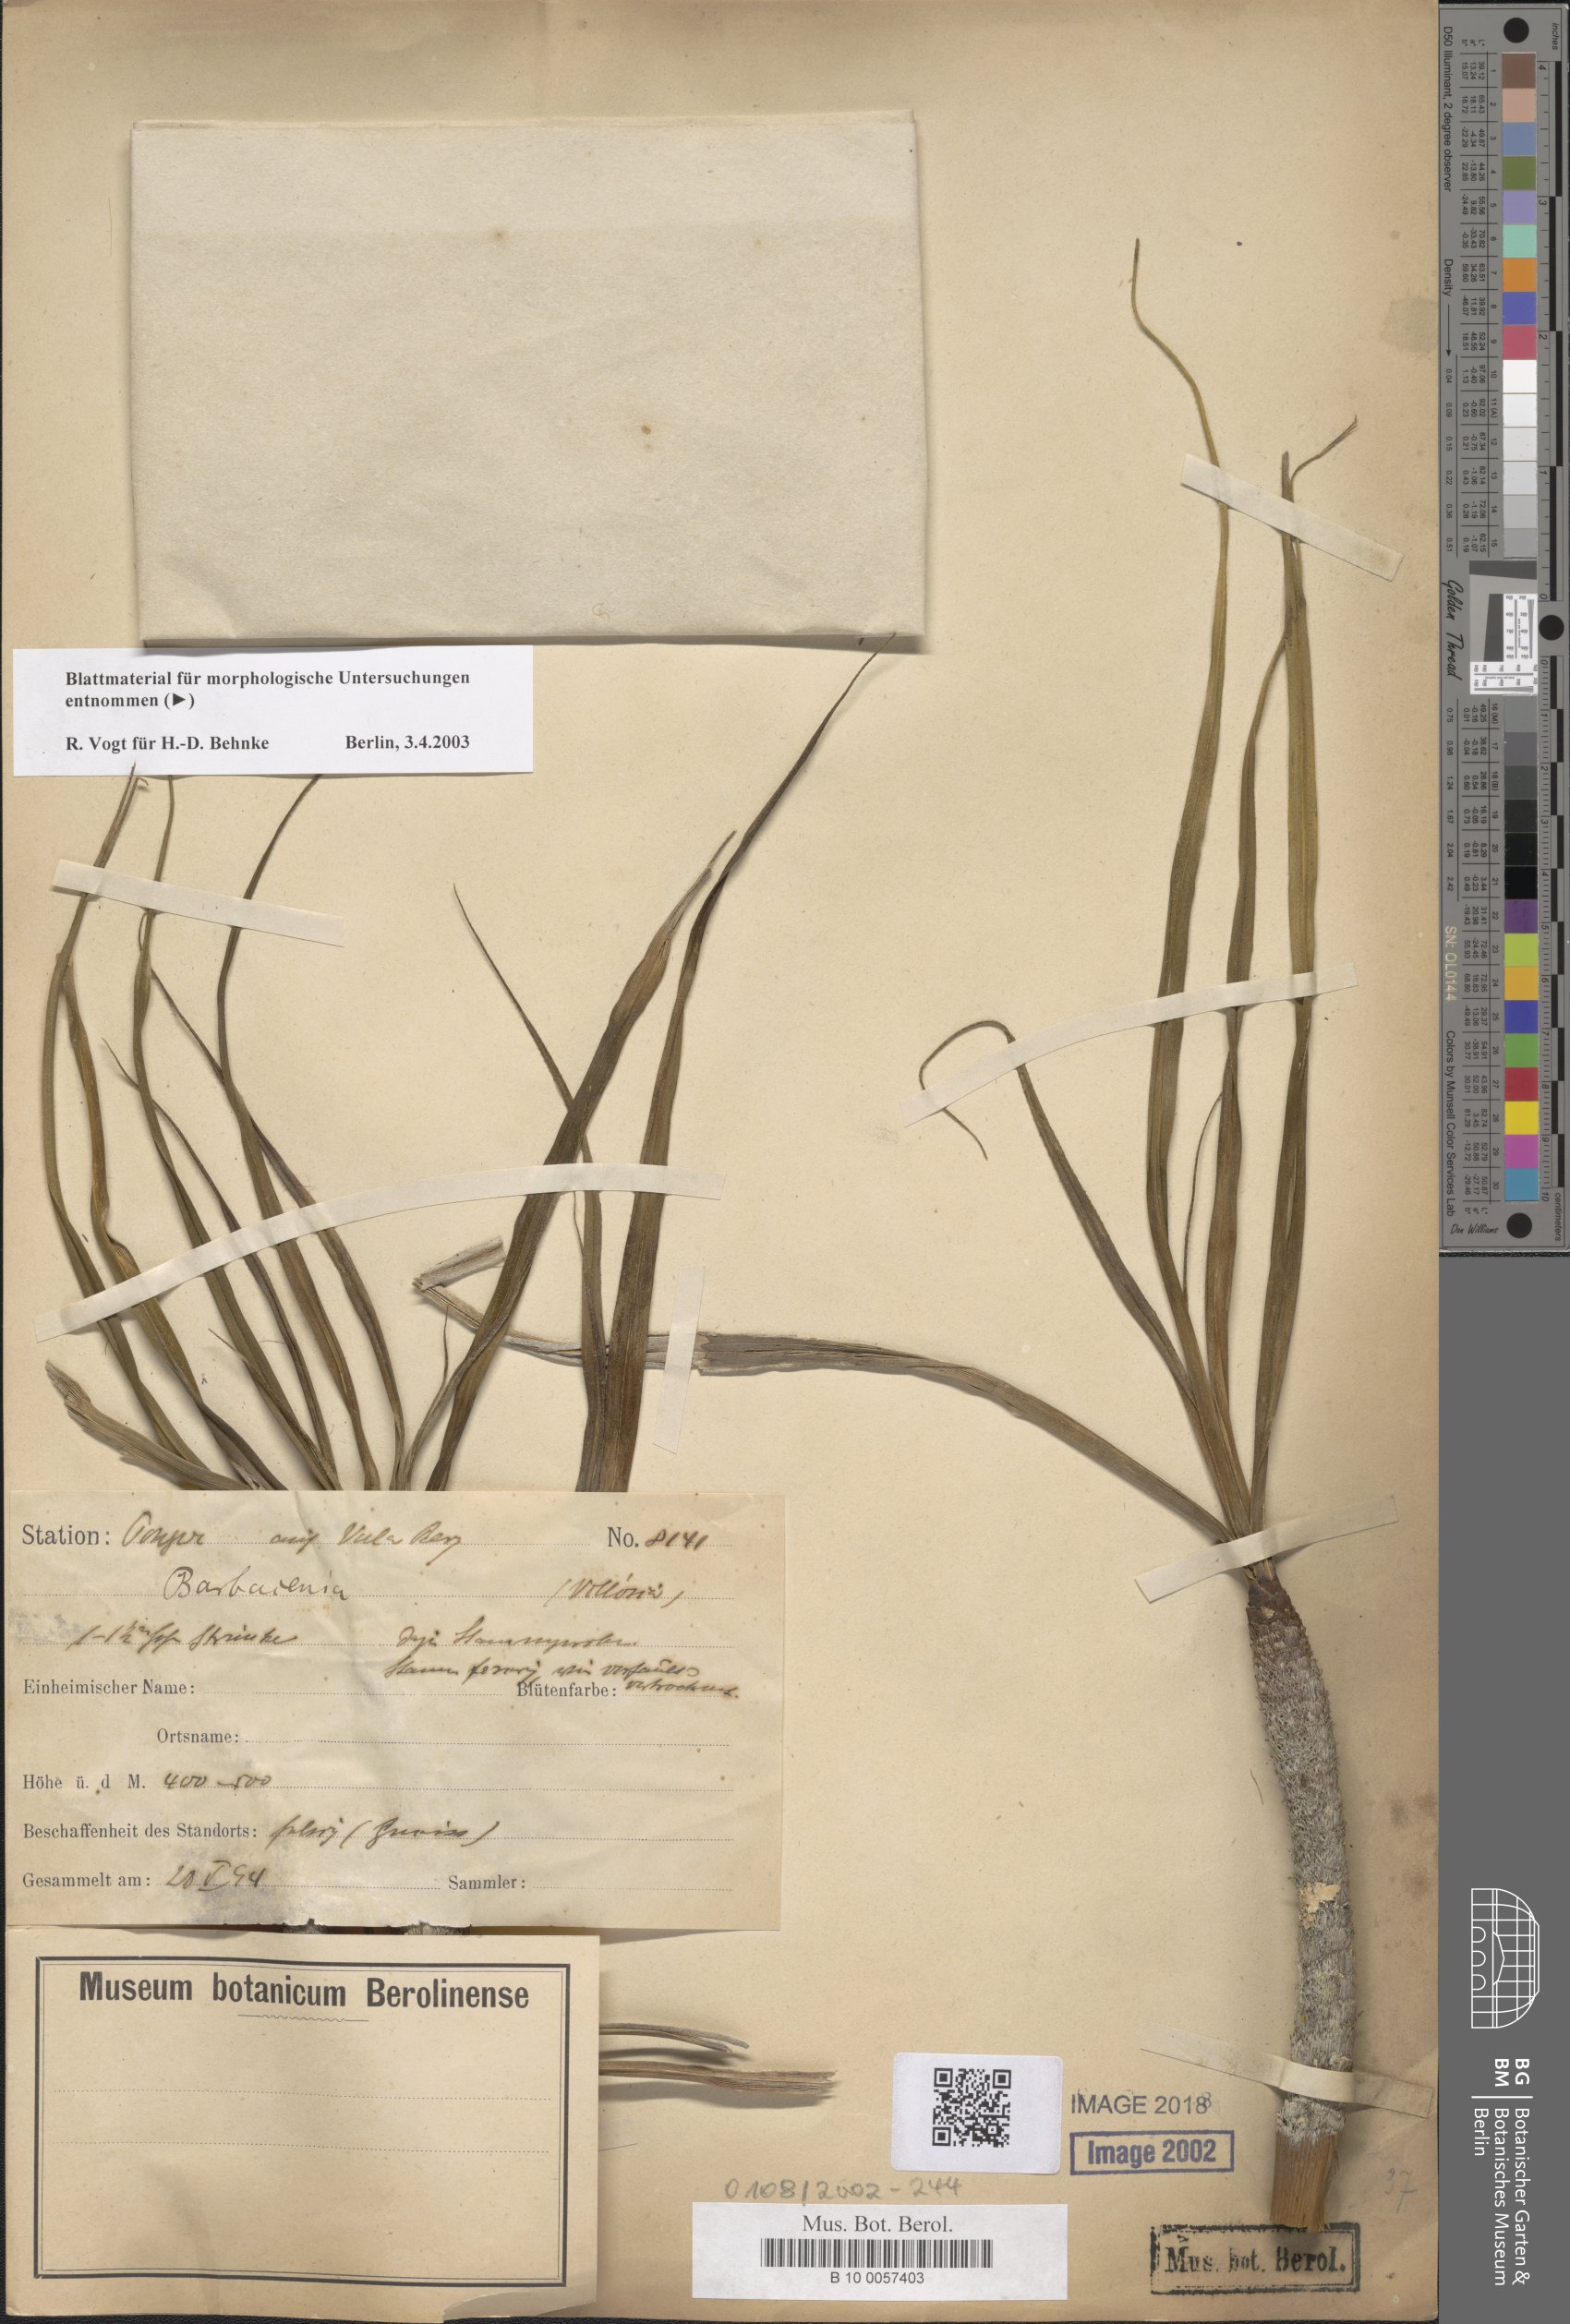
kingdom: Plantae
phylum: Tracheophyta
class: Liliopsida
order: Pandanales
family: Velloziaceae
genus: Xerophyta
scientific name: Xerophyta
